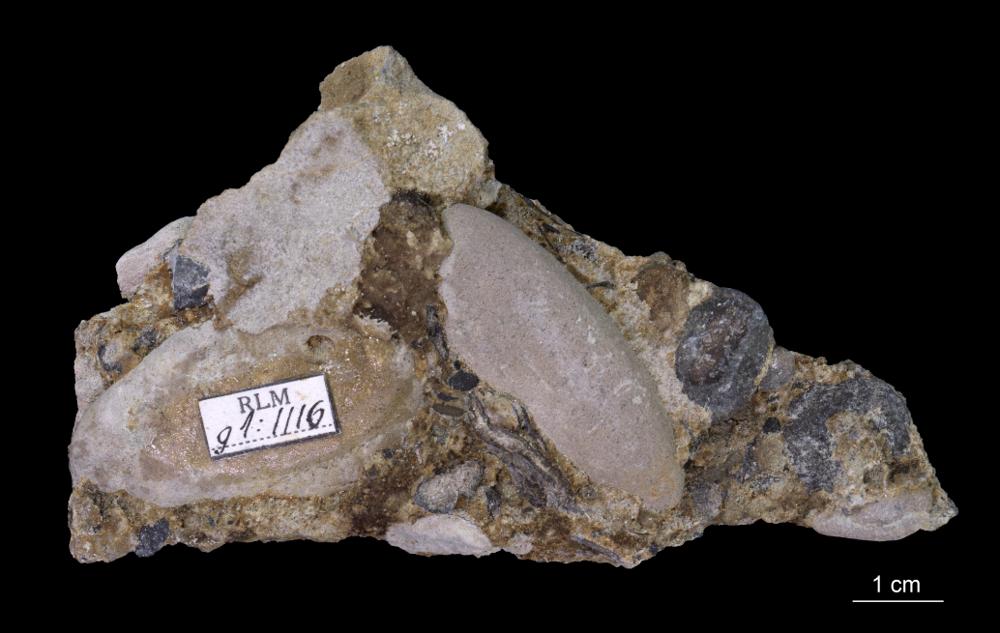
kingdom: Animalia
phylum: Mollusca
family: Scenellidae
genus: Scenella
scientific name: Scenella
